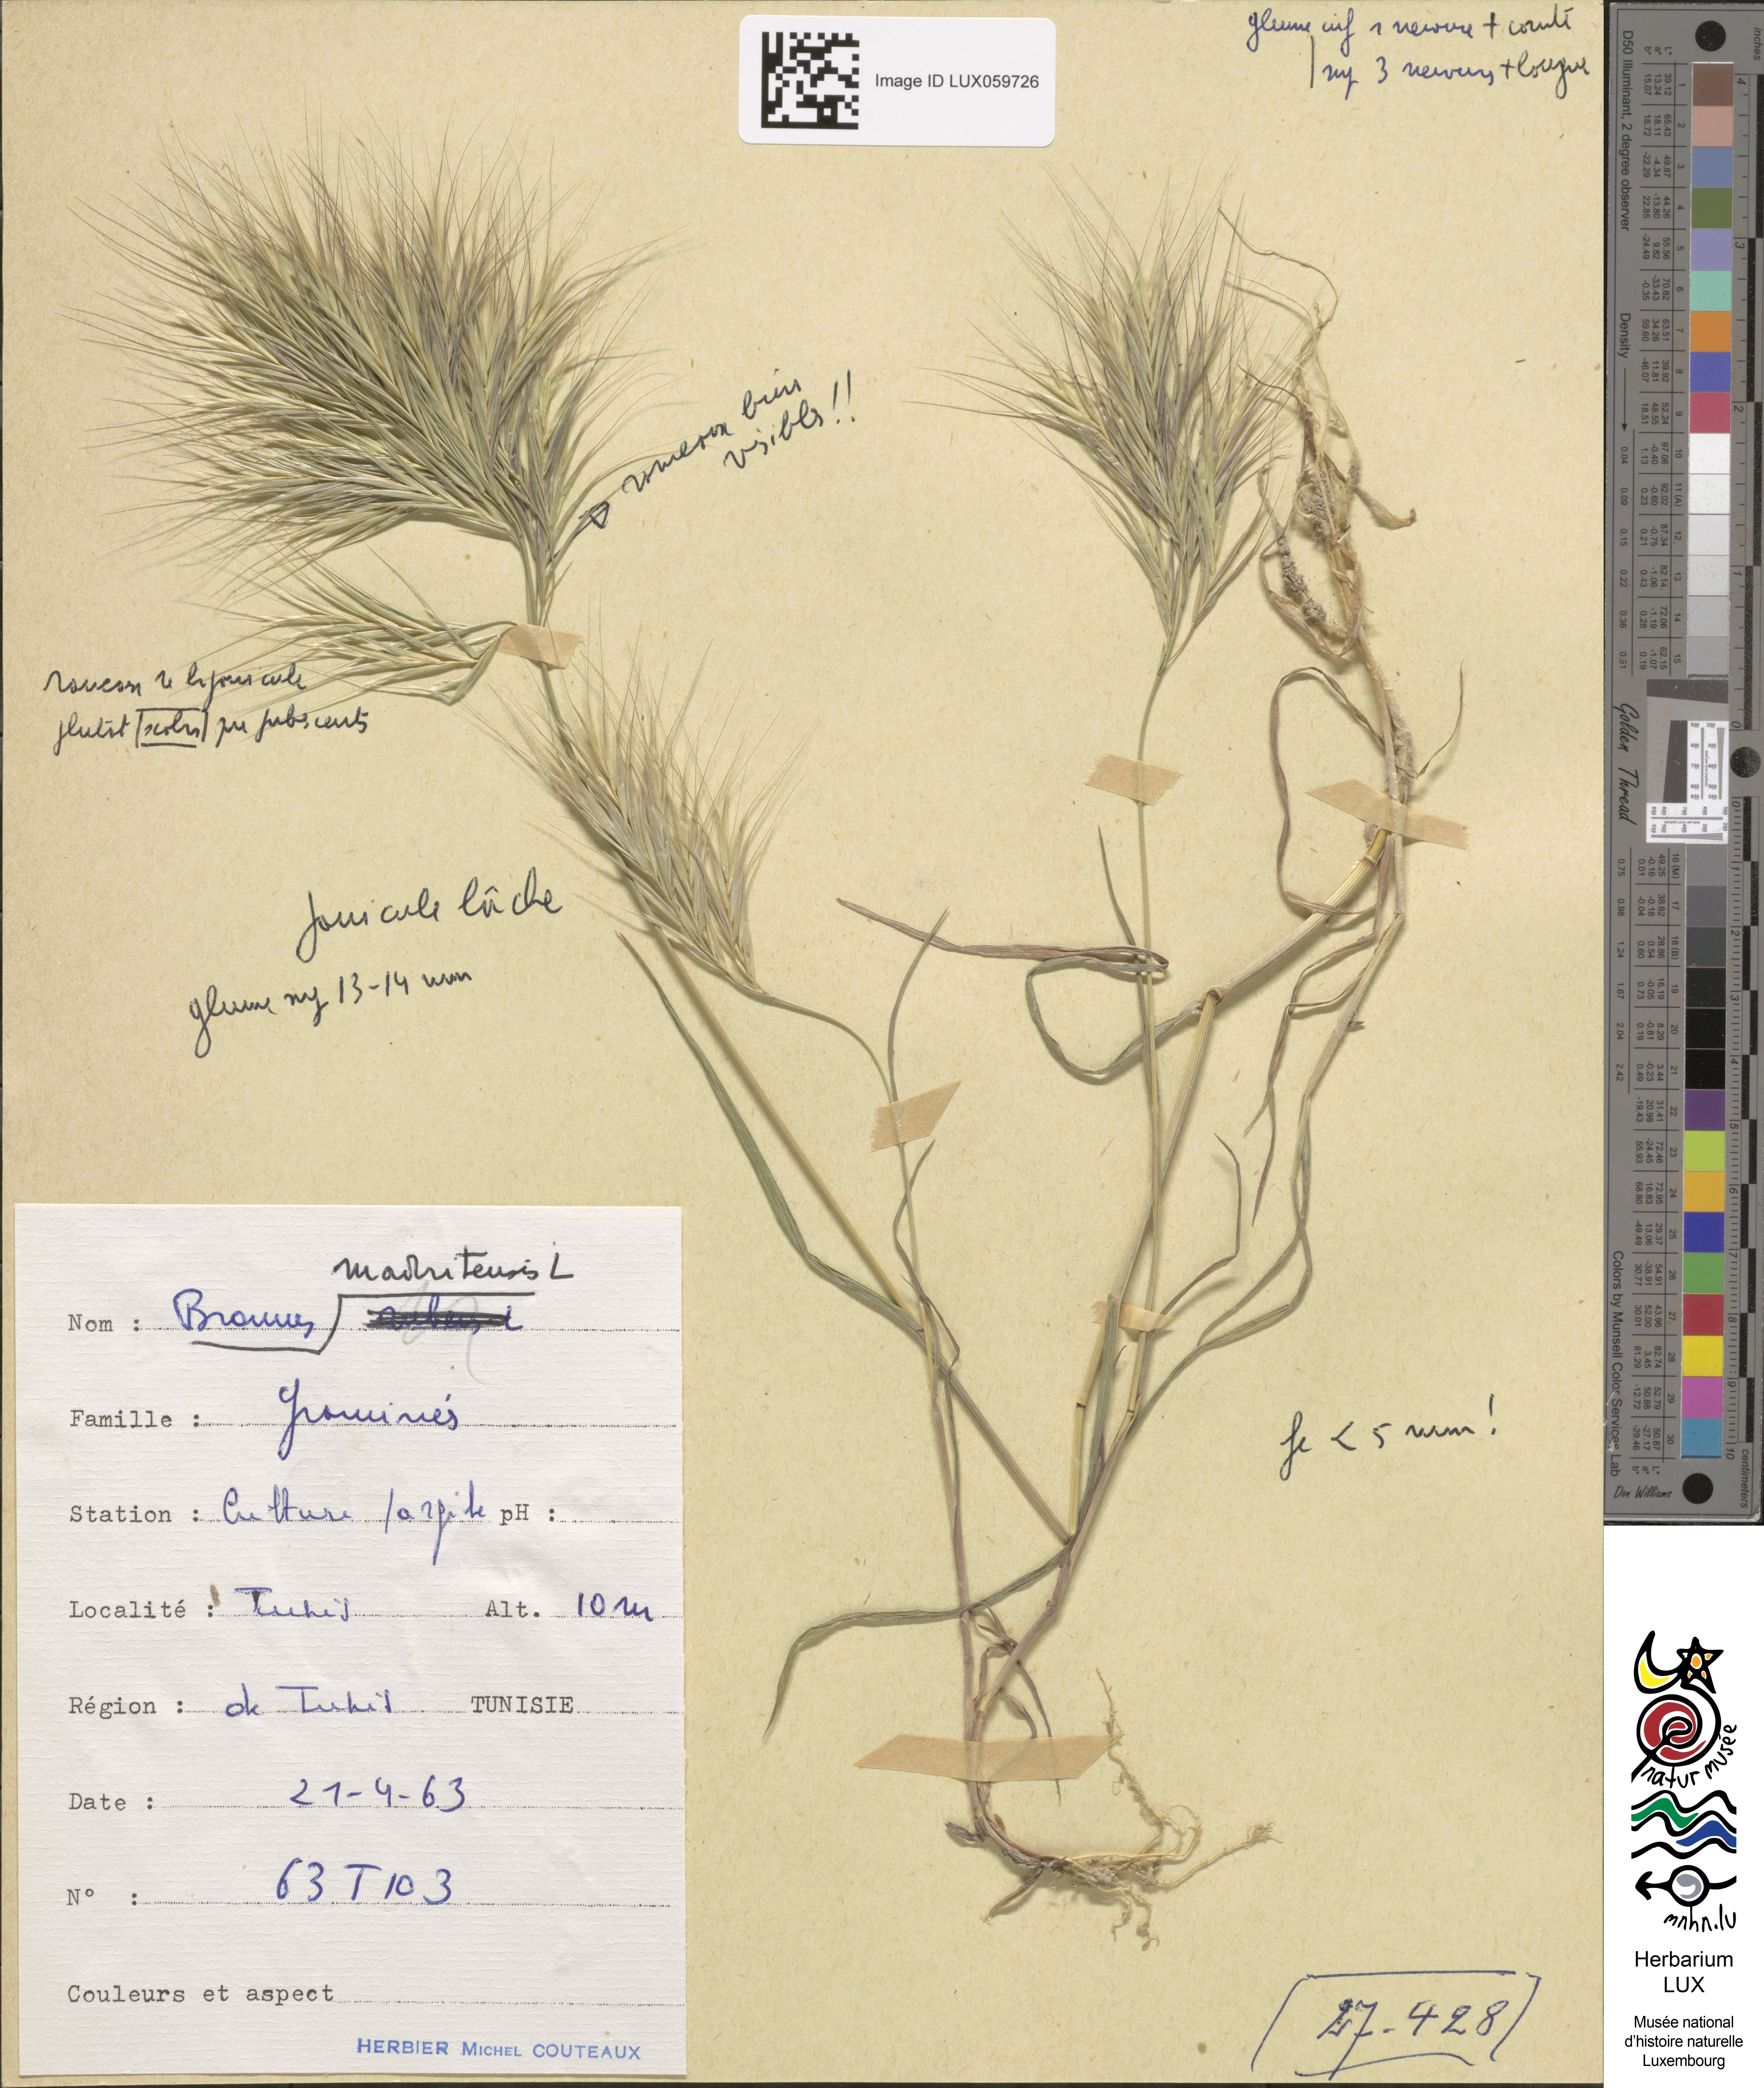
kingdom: Plantae
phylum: Tracheophyta
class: Liliopsida
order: Poales
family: Poaceae
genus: Bromus
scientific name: Bromus madritensis
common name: Compact brome
